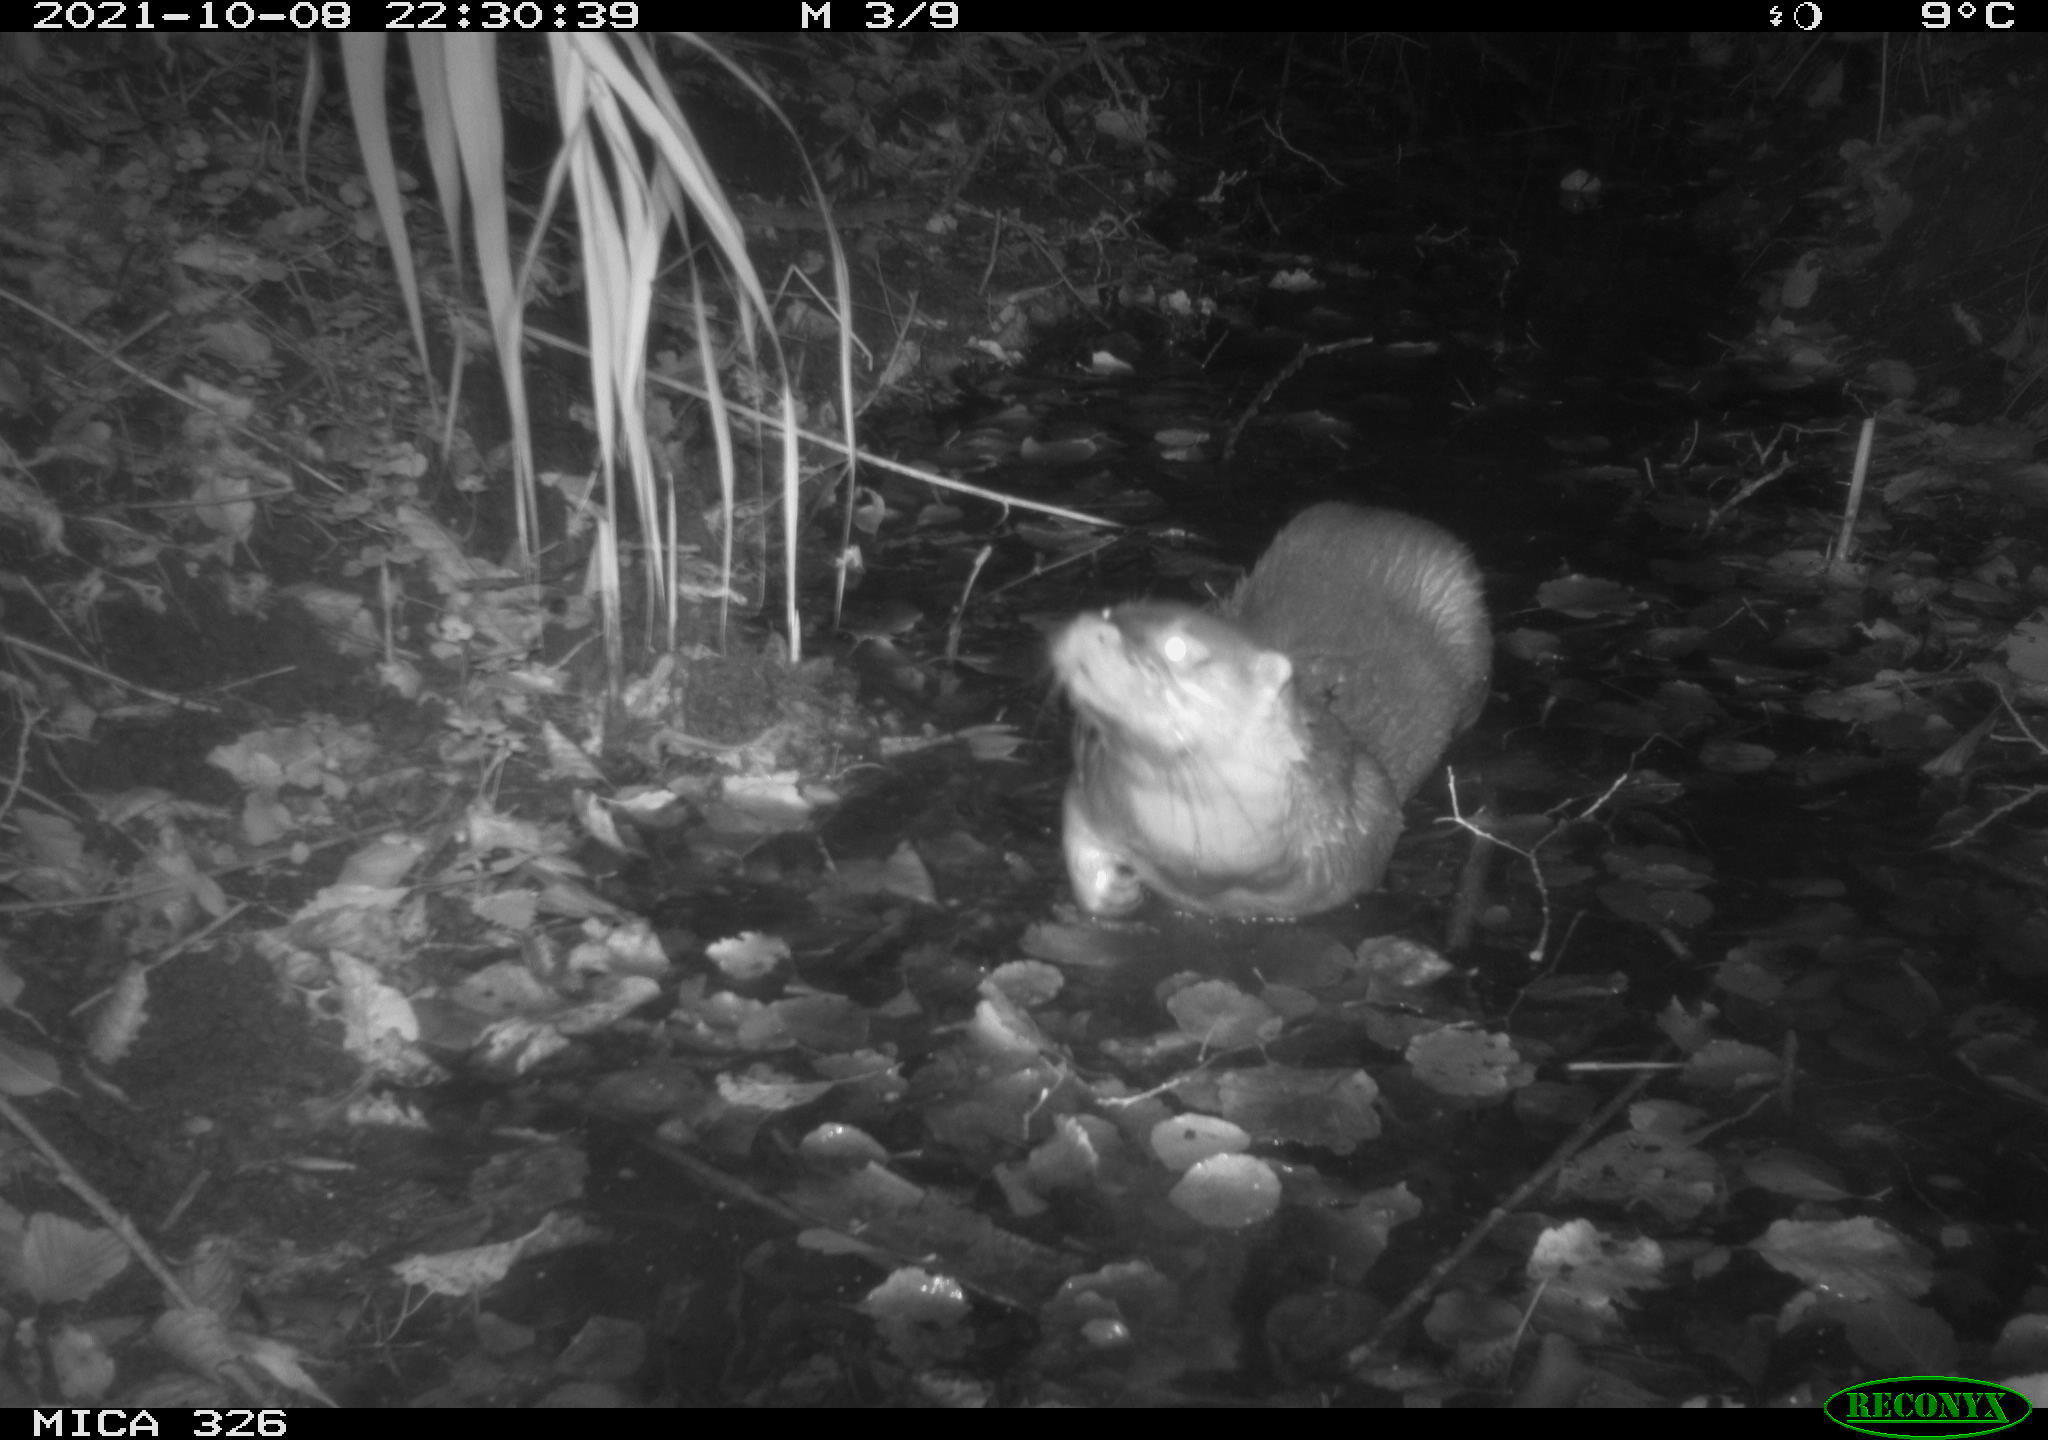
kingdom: Animalia
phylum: Chordata
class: Mammalia
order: Carnivora
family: Mustelidae
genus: Lutra
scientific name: Lutra lutra
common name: European otter
